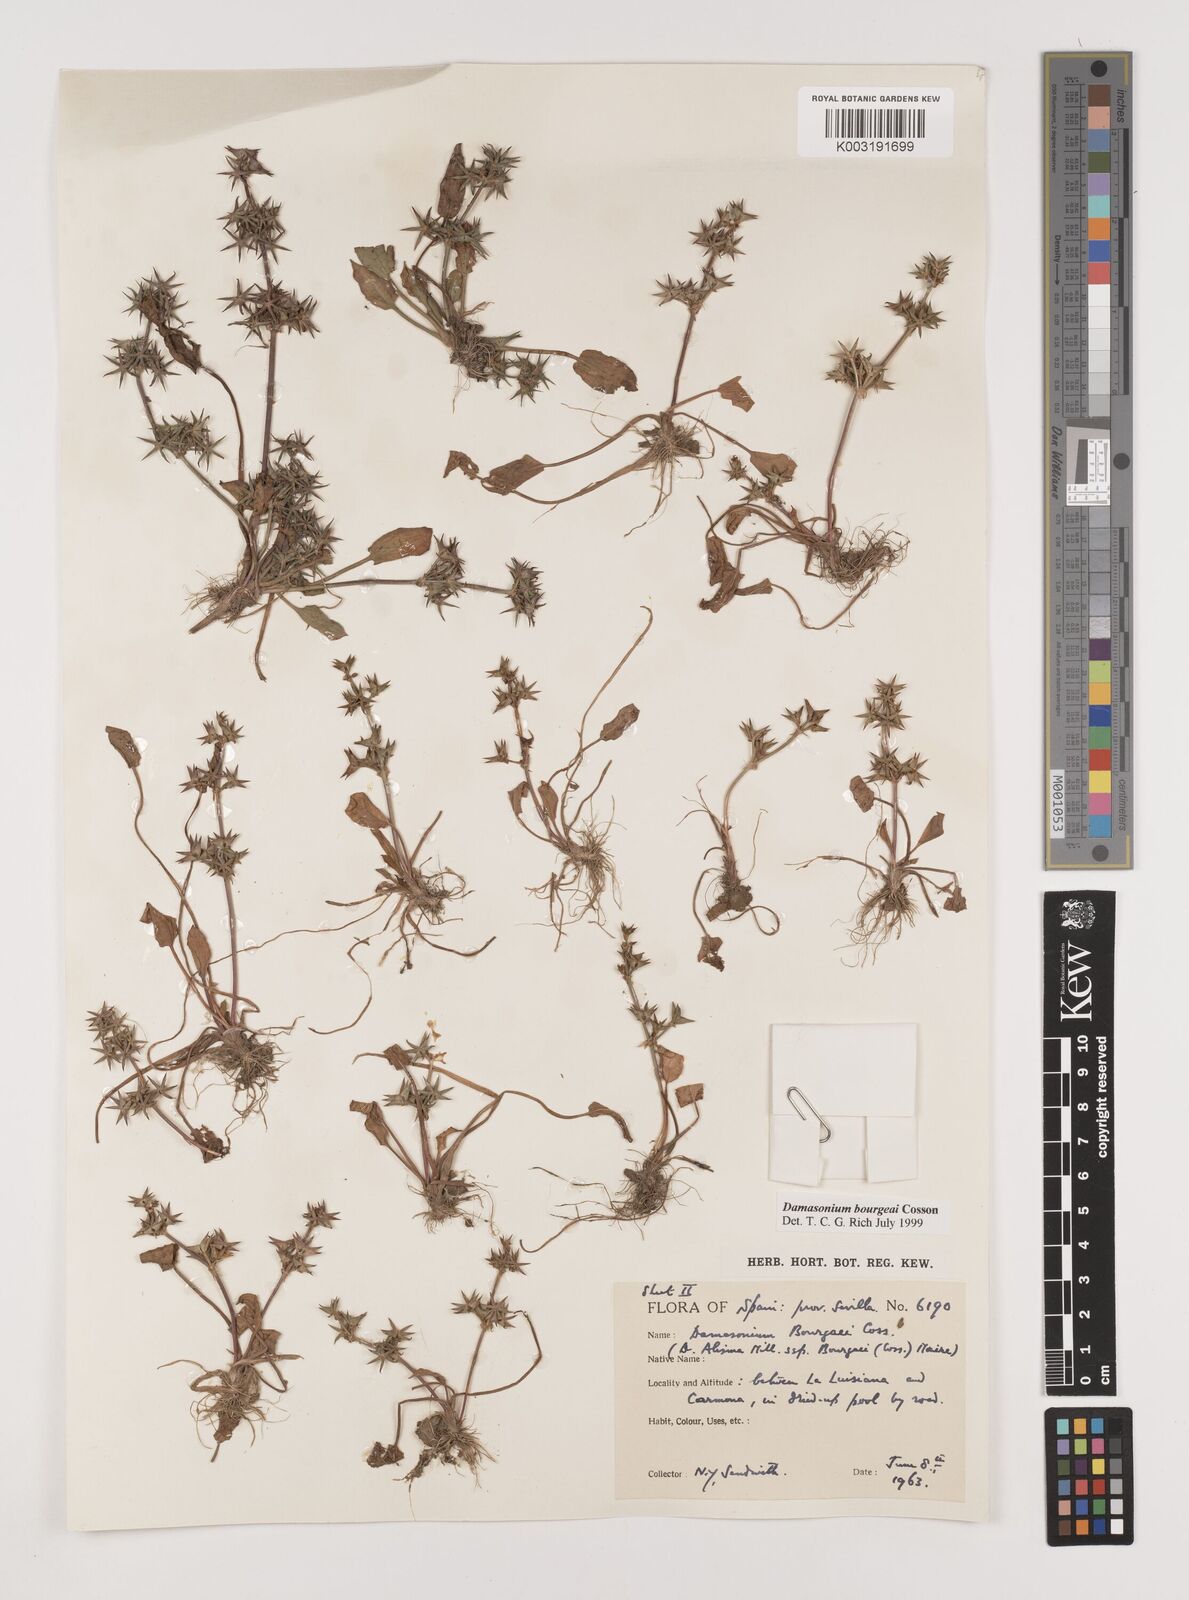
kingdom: Plantae
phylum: Tracheophyta
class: Liliopsida
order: Alismatales
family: Alismataceae
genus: Damasonium
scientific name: Damasonium bourgaei
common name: Starfruit
